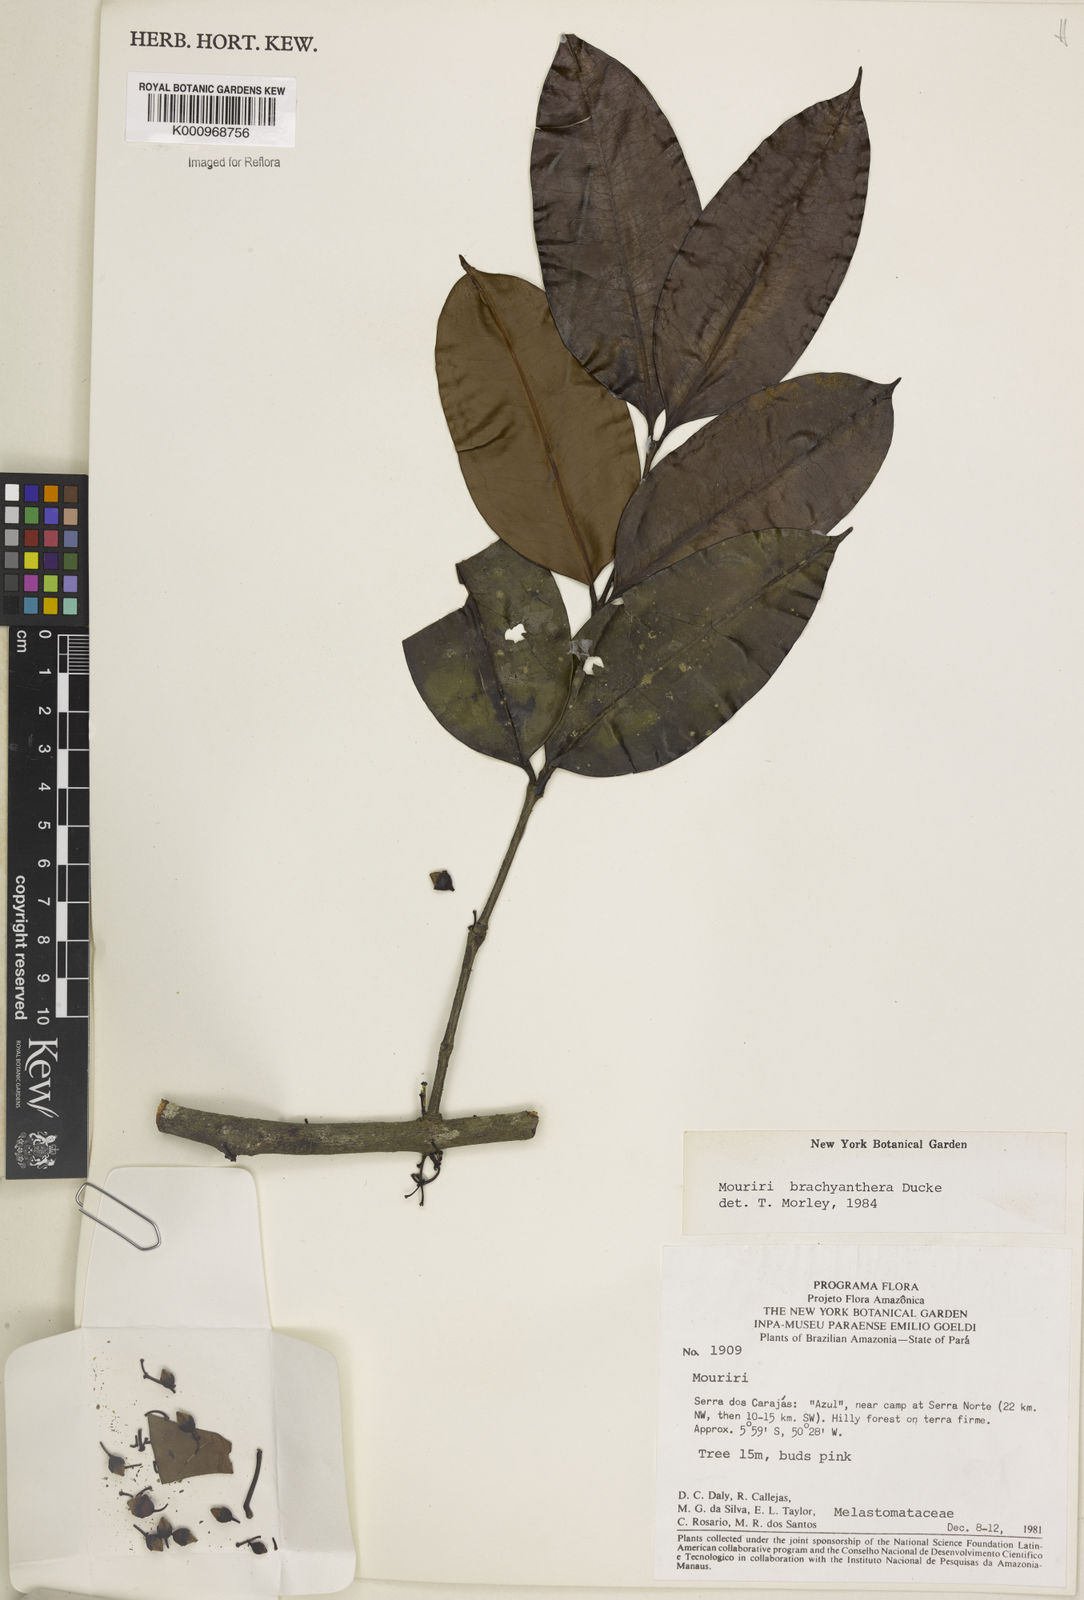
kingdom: Plantae
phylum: Tracheophyta
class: Magnoliopsida
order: Myrtales
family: Melastomataceae
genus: Mouriri
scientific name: Mouriri brachyanthera
